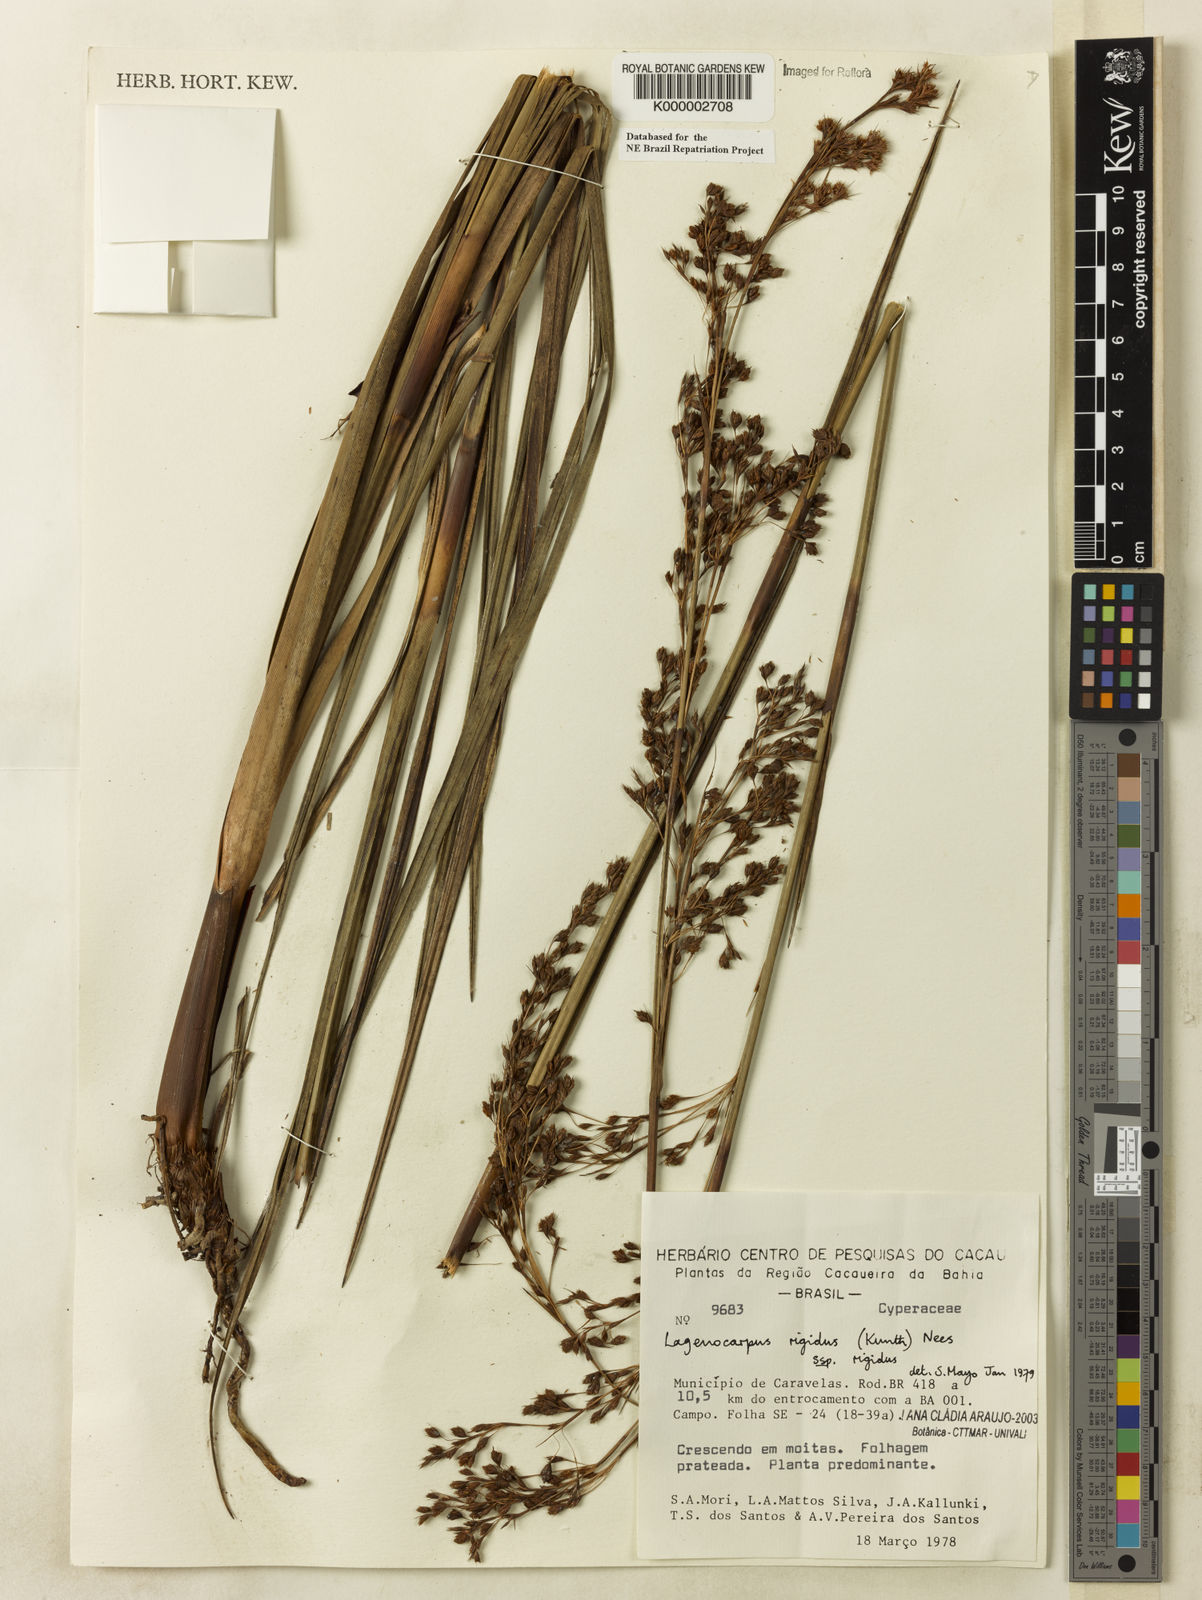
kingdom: Plantae
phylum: Tracheophyta
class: Liliopsida
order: Poales
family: Cyperaceae
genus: Lagenocarpus
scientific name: Lagenocarpus rigidus
